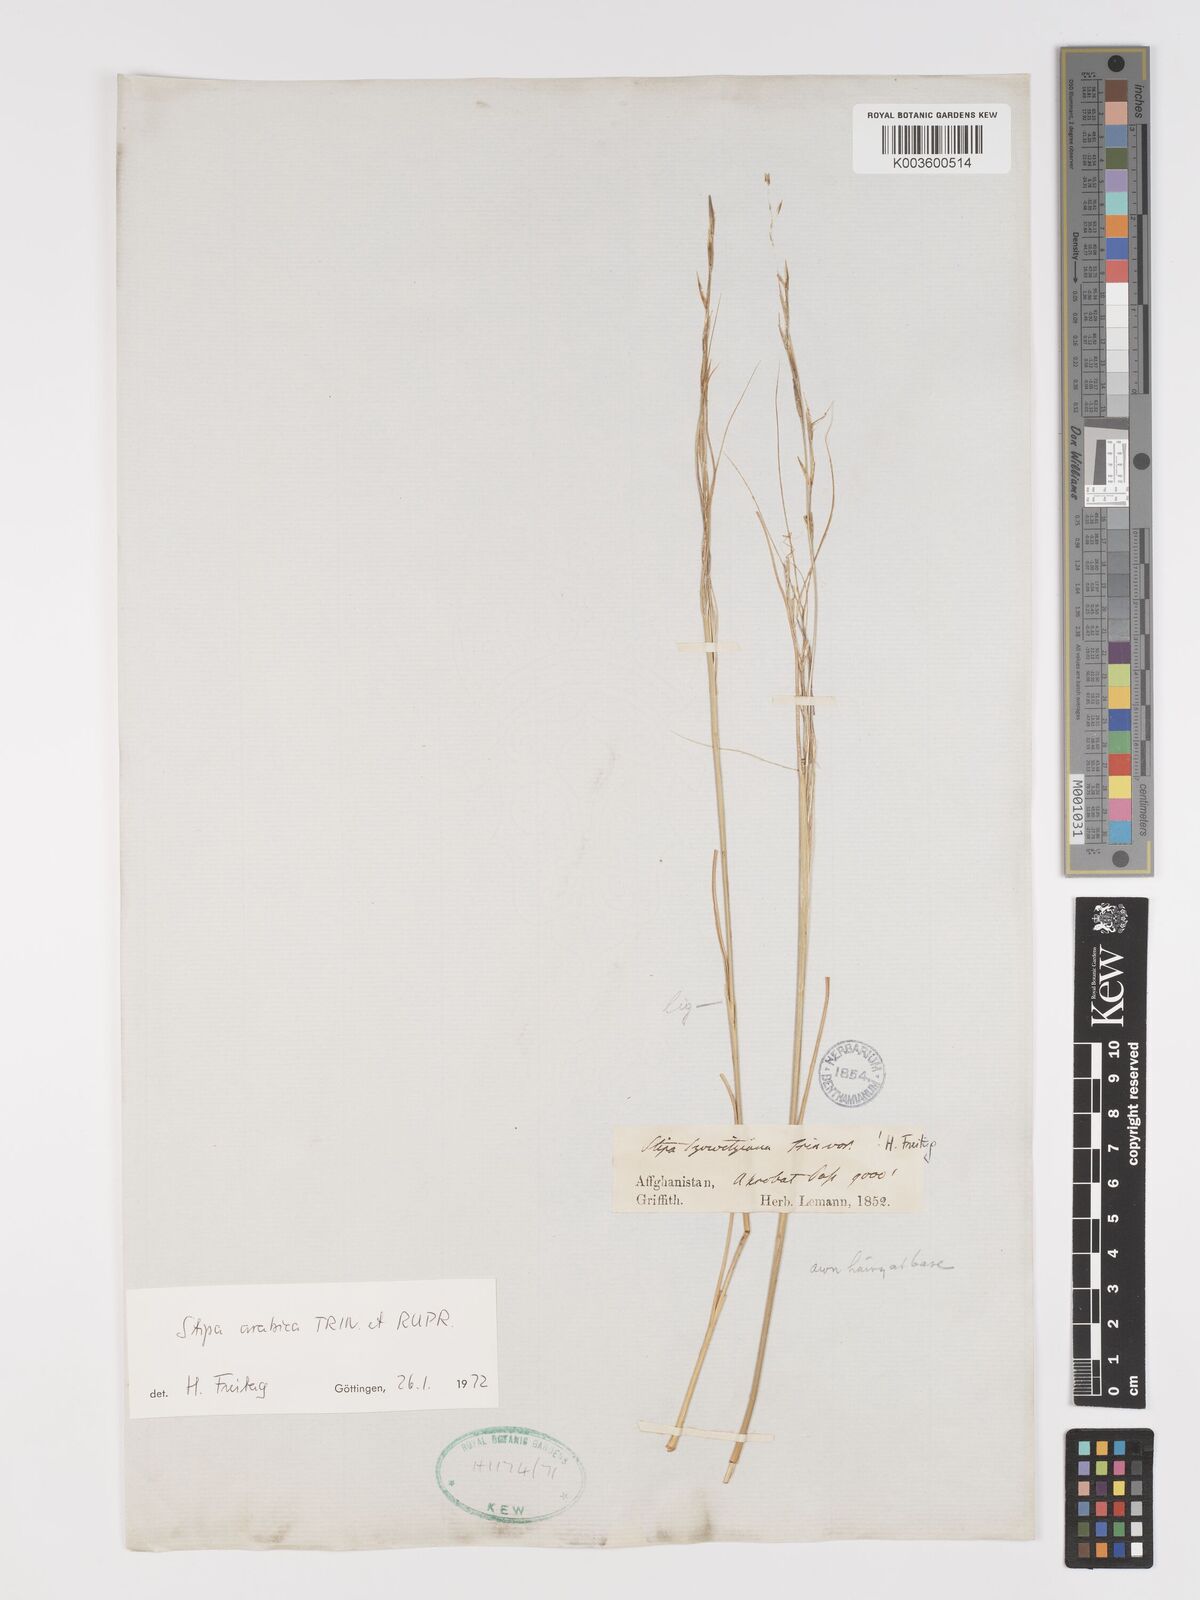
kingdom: Plantae
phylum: Tracheophyta
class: Liliopsida
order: Poales
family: Poaceae
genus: Stipa
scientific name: Stipa arabica
